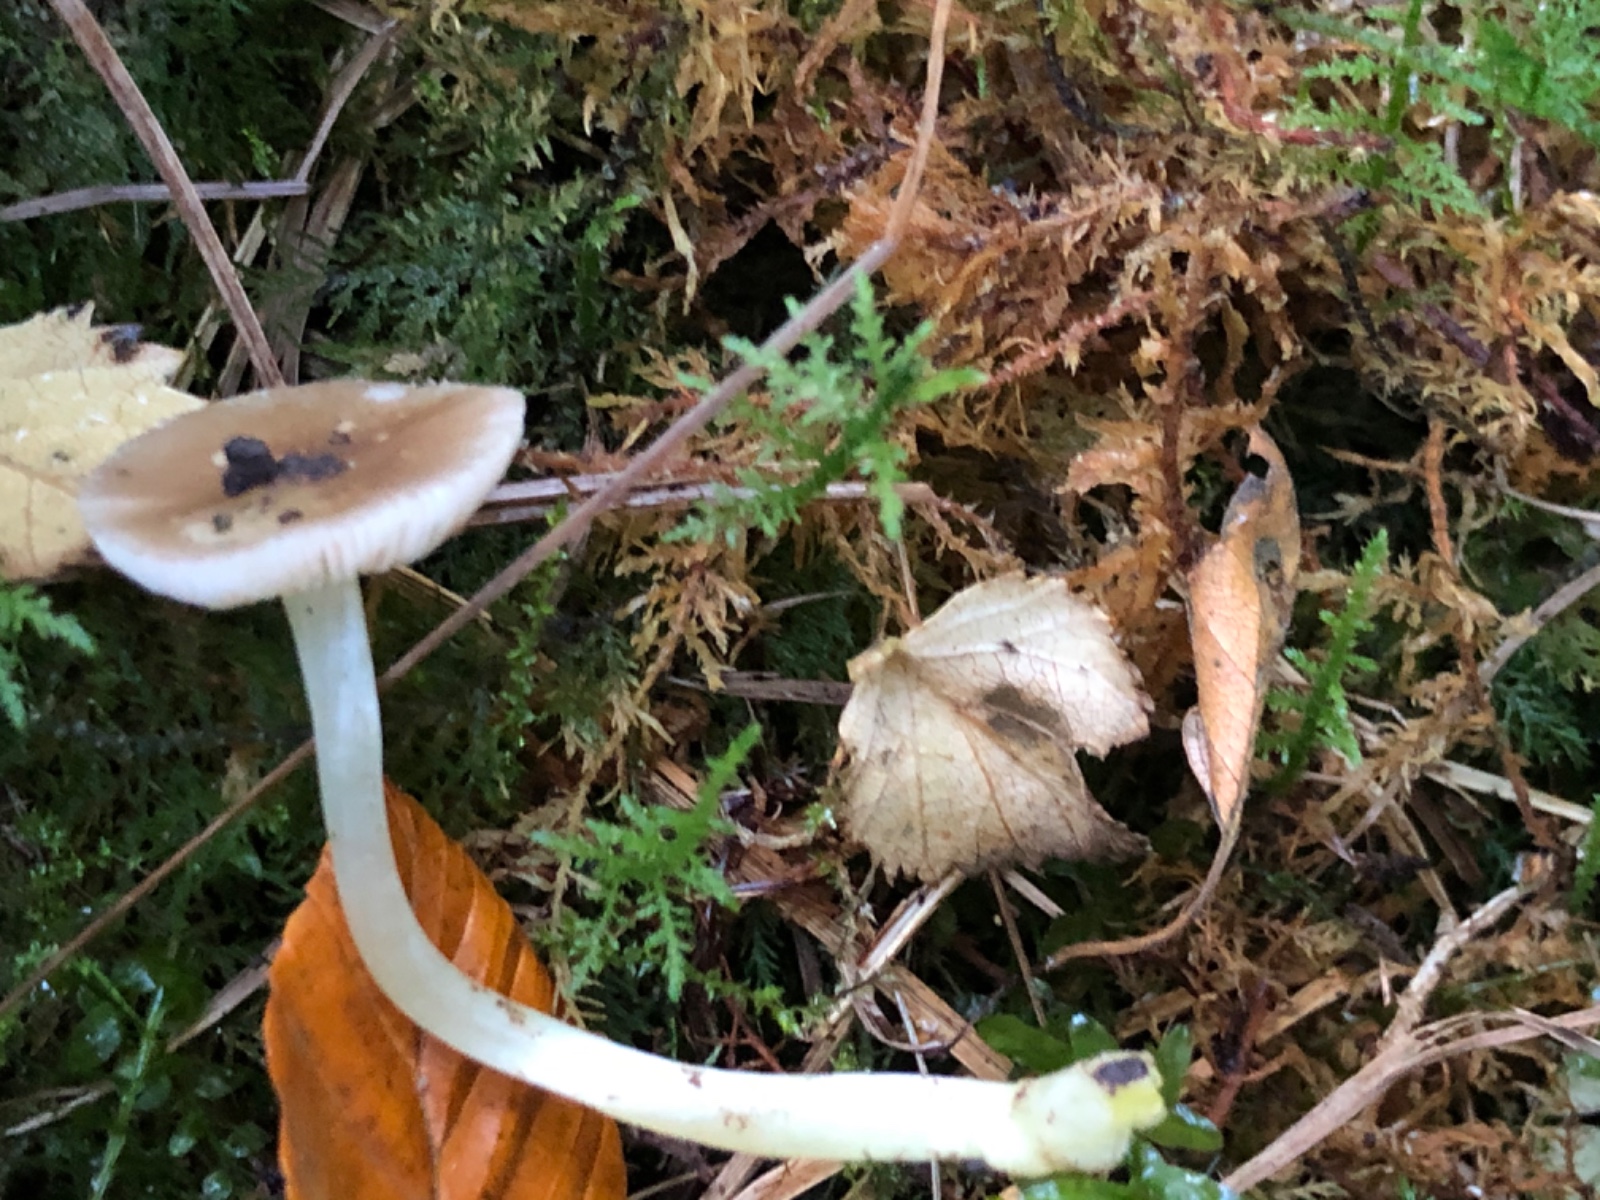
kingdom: Fungi
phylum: Basidiomycota
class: Agaricomycetes
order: Agaricales
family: Pluteaceae
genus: Pluteus
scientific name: Pluteus romellii
